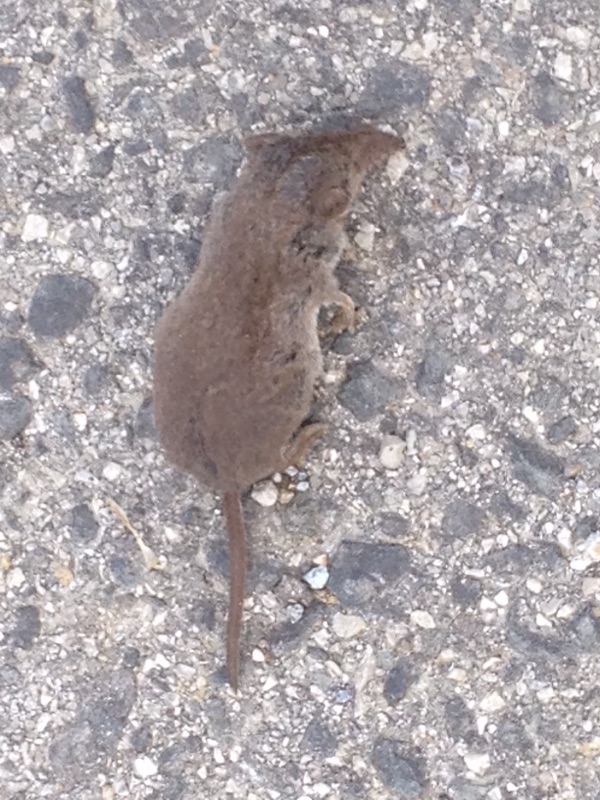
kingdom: Animalia
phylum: Chordata
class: Mammalia
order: Soricomorpha
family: Soricidae
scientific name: Soricidae
